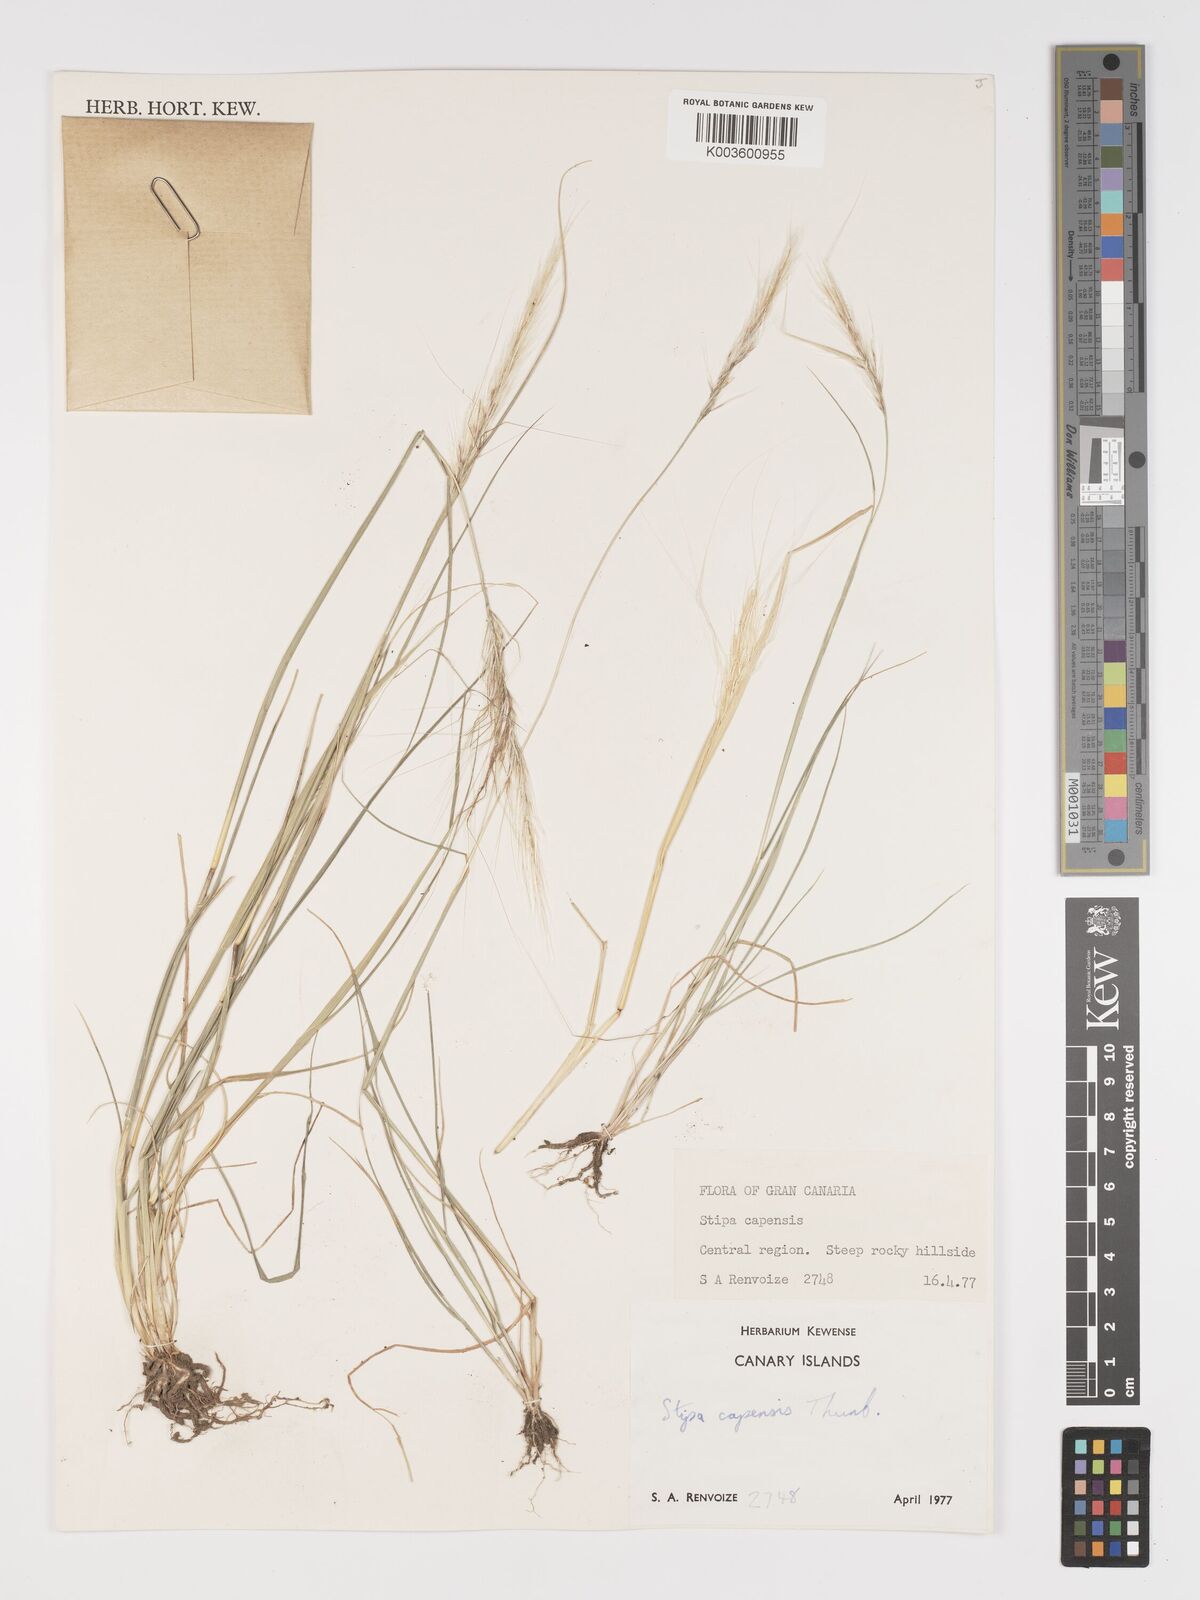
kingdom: Plantae
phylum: Tracheophyta
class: Liliopsida
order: Poales
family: Poaceae
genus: Stipellula
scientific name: Stipellula capensis
